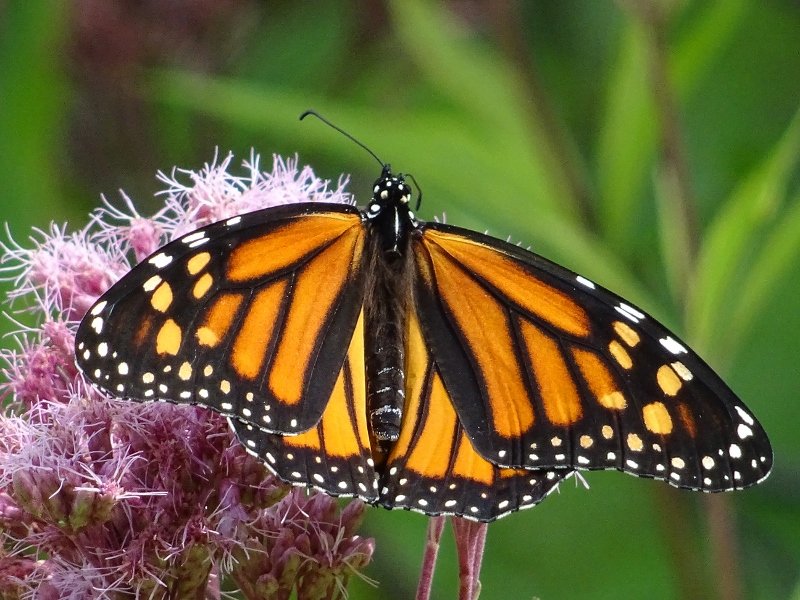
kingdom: Animalia
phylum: Arthropoda
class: Insecta
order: Lepidoptera
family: Nymphalidae
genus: Danaus
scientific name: Danaus plexippus
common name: Monarch
